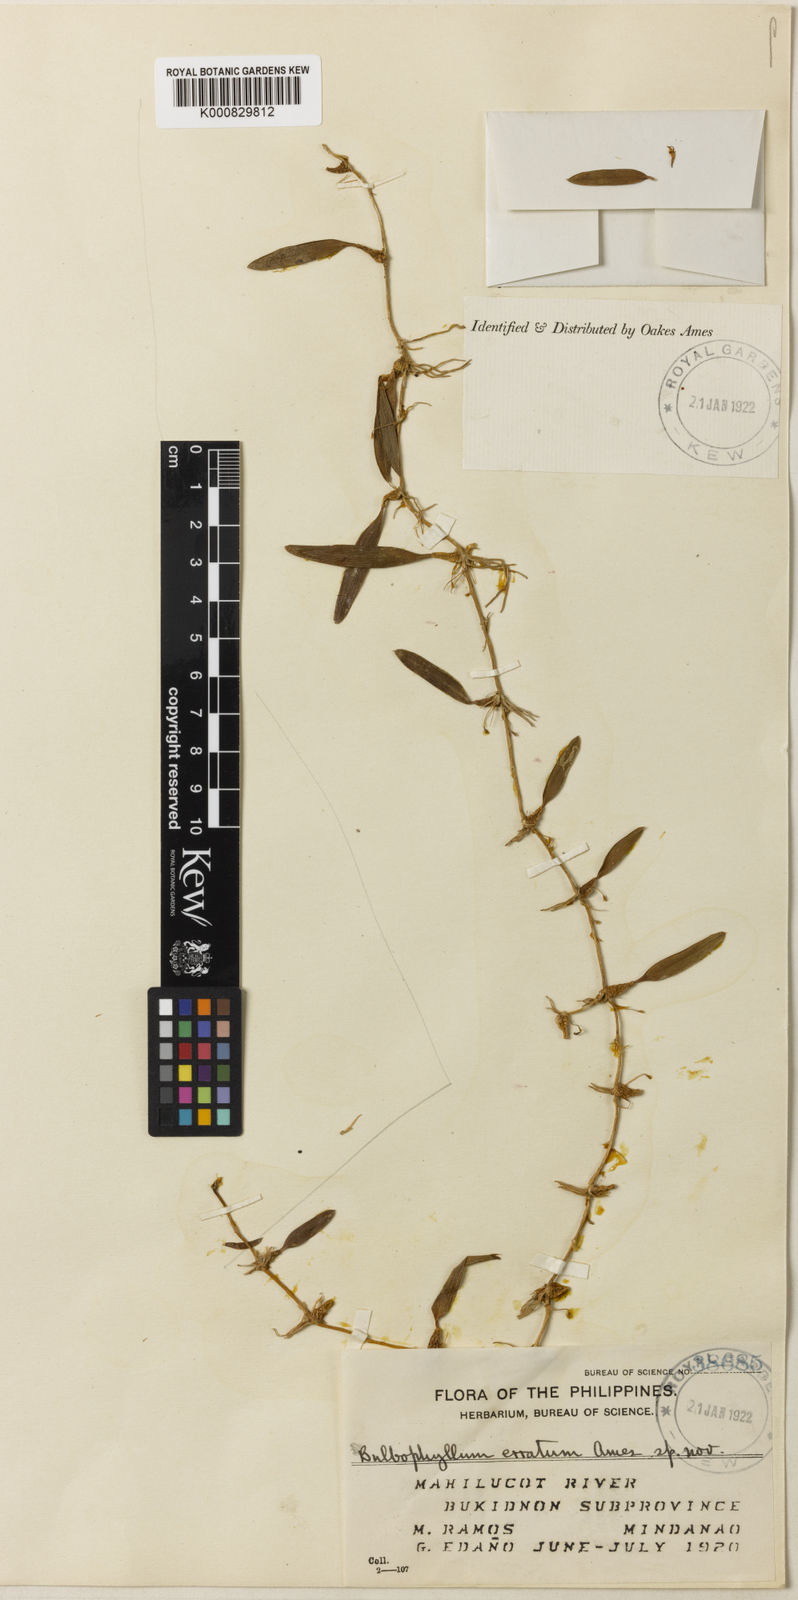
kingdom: Plantae
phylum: Tracheophyta
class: Liliopsida
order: Asparagales
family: Orchidaceae
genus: Bulbophyllum
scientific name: Bulbophyllum erratum
